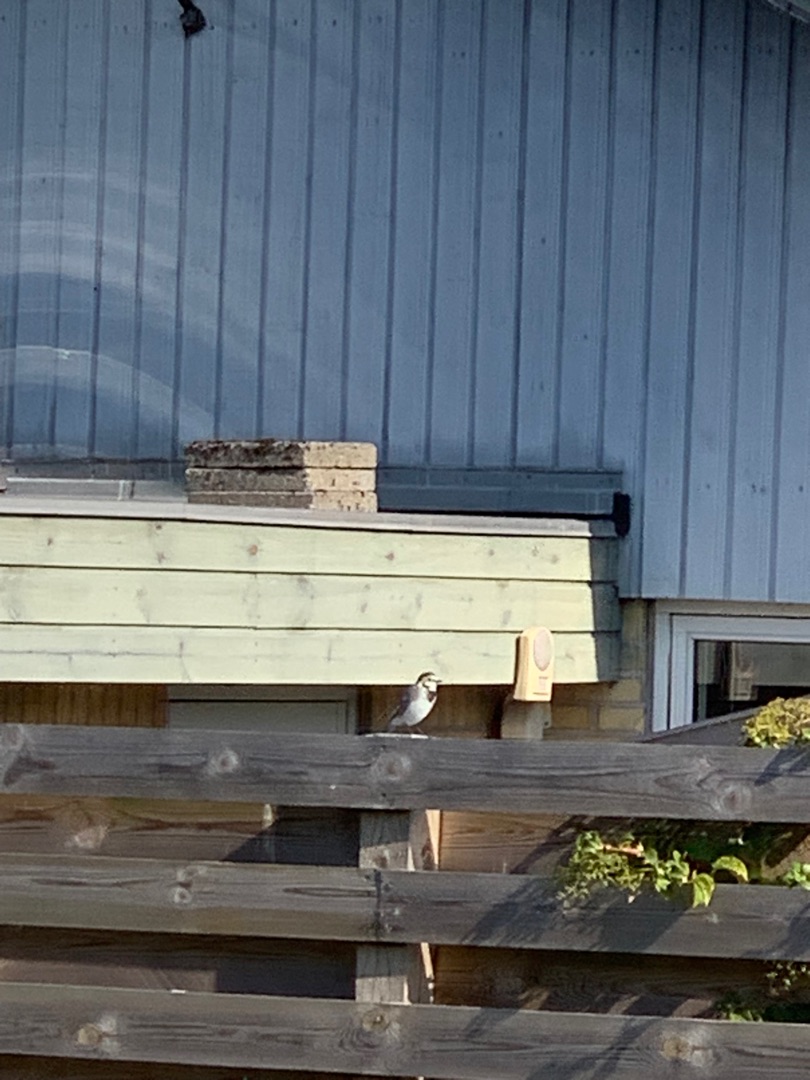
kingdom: Animalia
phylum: Chordata
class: Aves
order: Passeriformes
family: Motacillidae
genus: Motacilla
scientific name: Motacilla alba
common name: Hvid vipstjert
